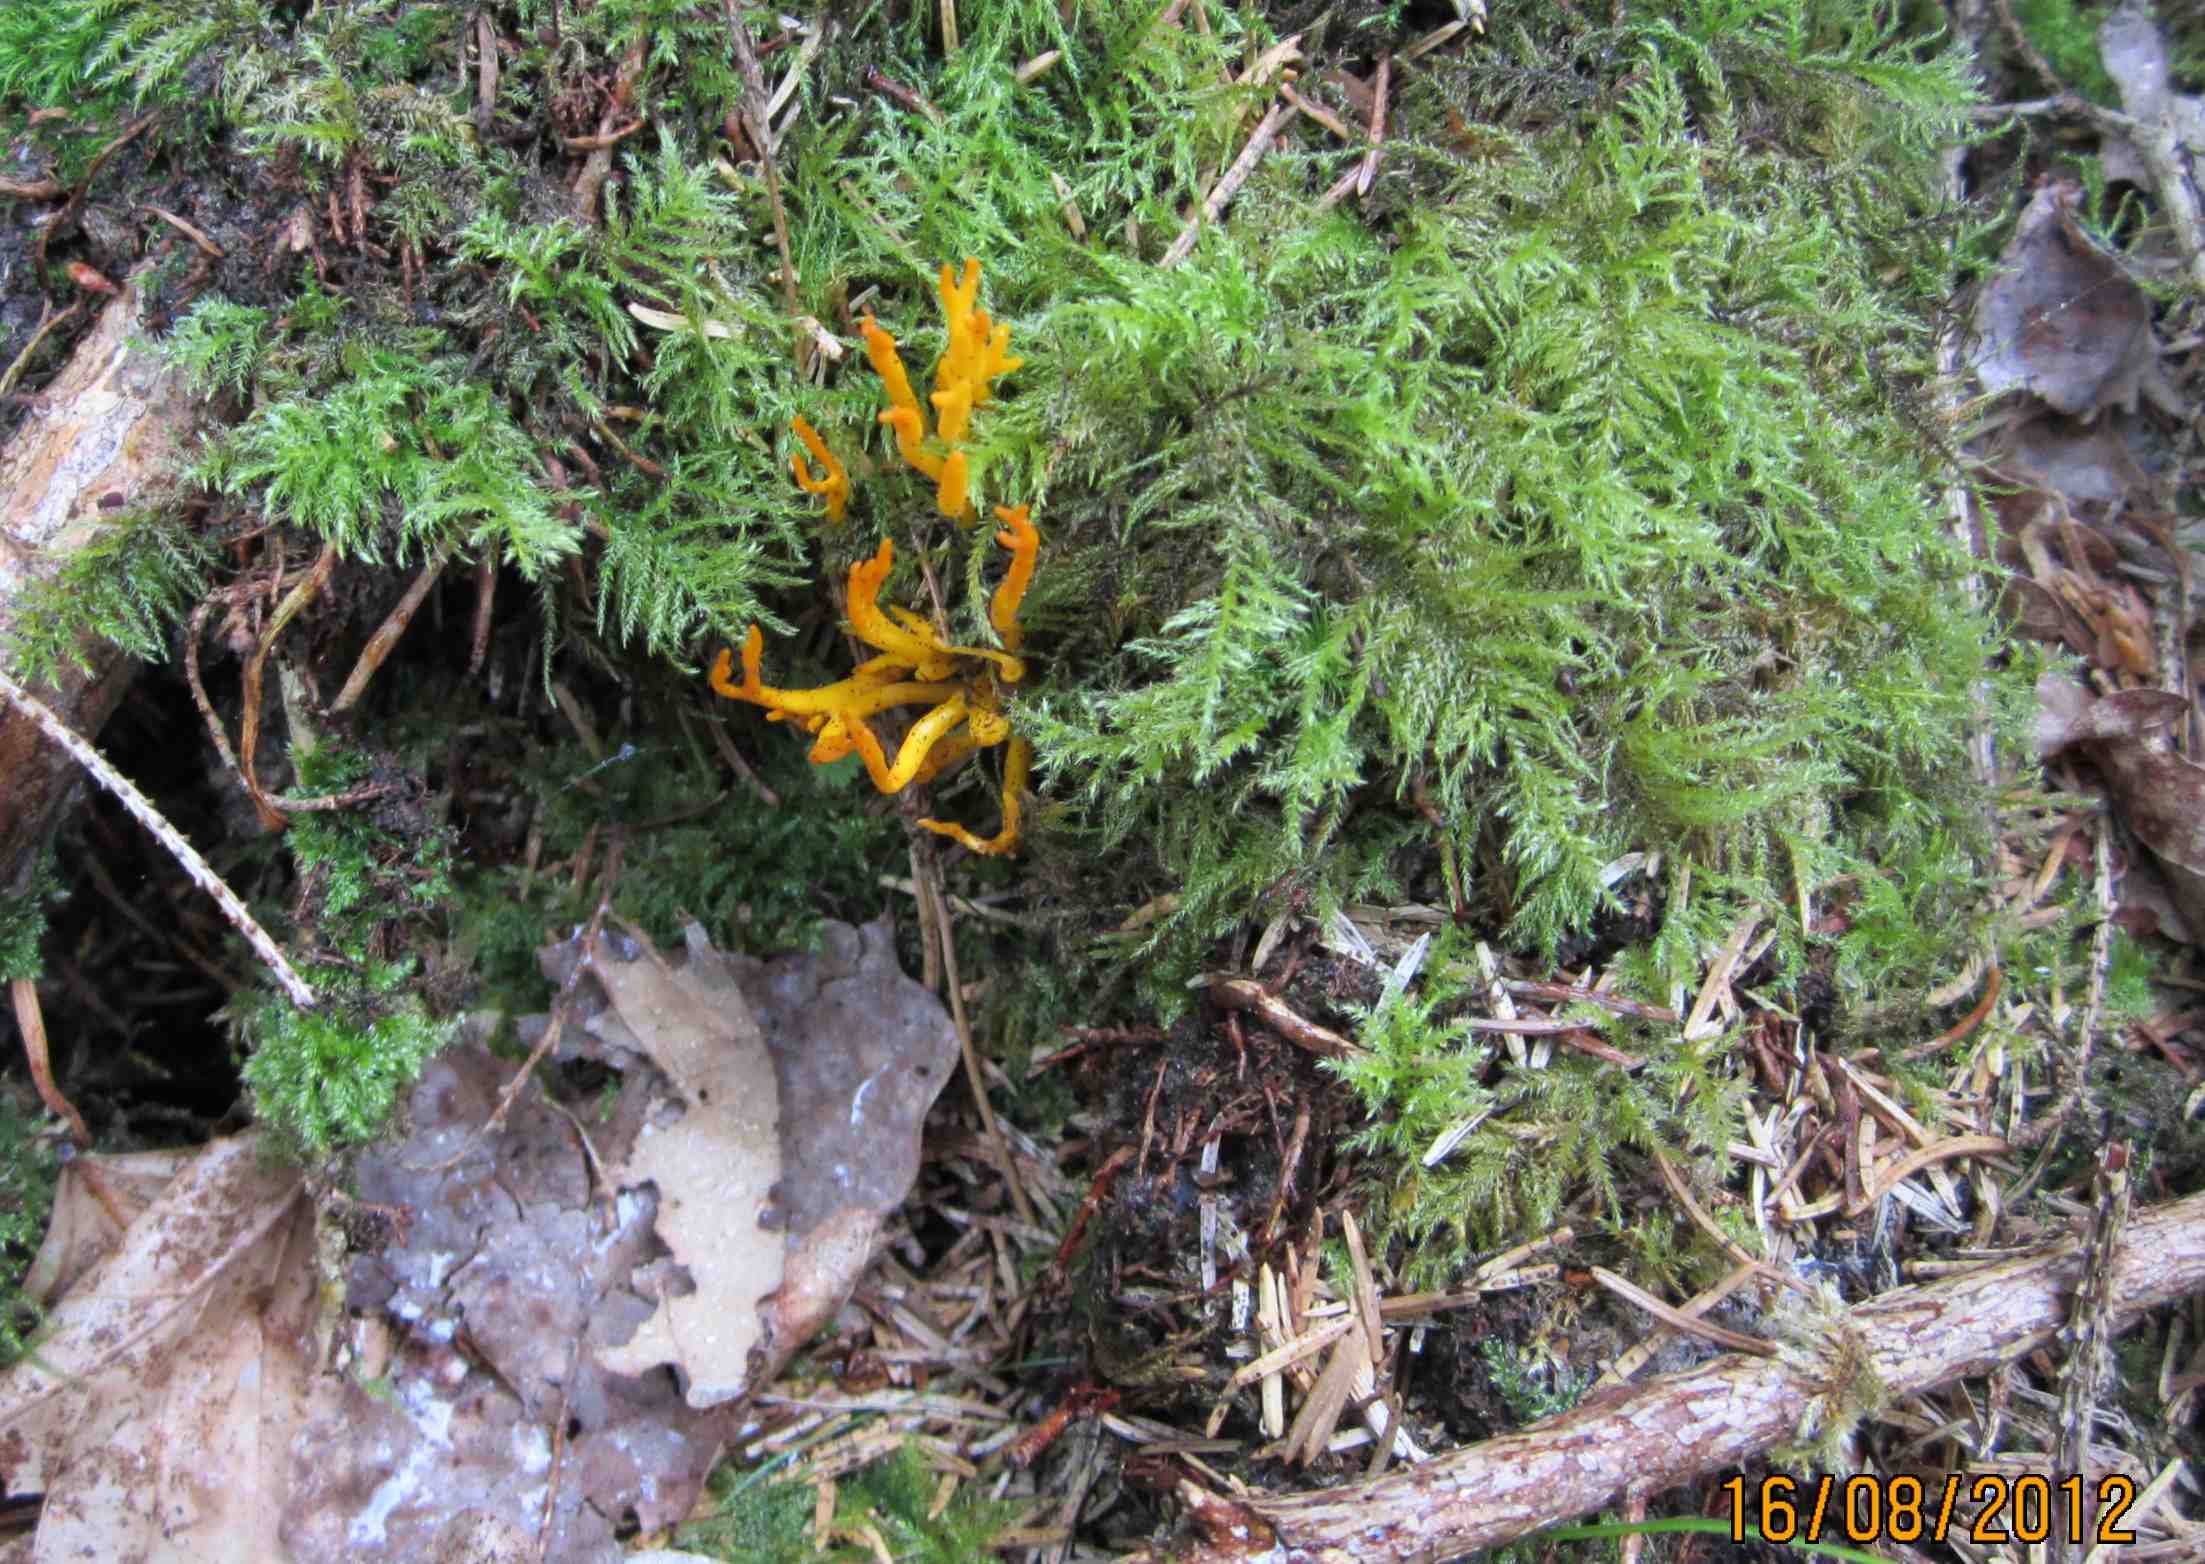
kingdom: Fungi
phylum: Basidiomycota
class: Dacrymycetes
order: Dacrymycetales
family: Dacrymycetaceae
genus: Calocera
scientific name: Calocera viscosa
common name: almindelig guldgaffel
